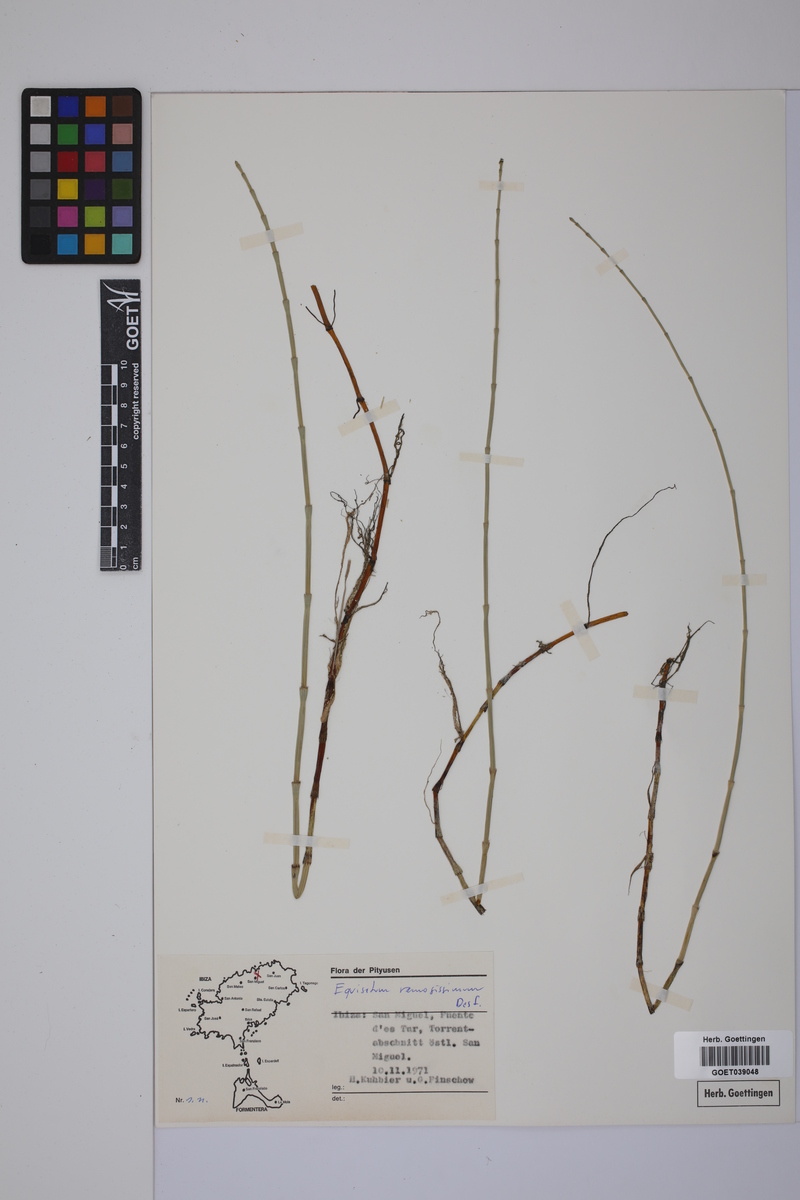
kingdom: Plantae
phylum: Tracheophyta
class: Polypodiopsida
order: Equisetales
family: Equisetaceae
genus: Equisetum
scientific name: Equisetum giganteum
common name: Giant horsetail
